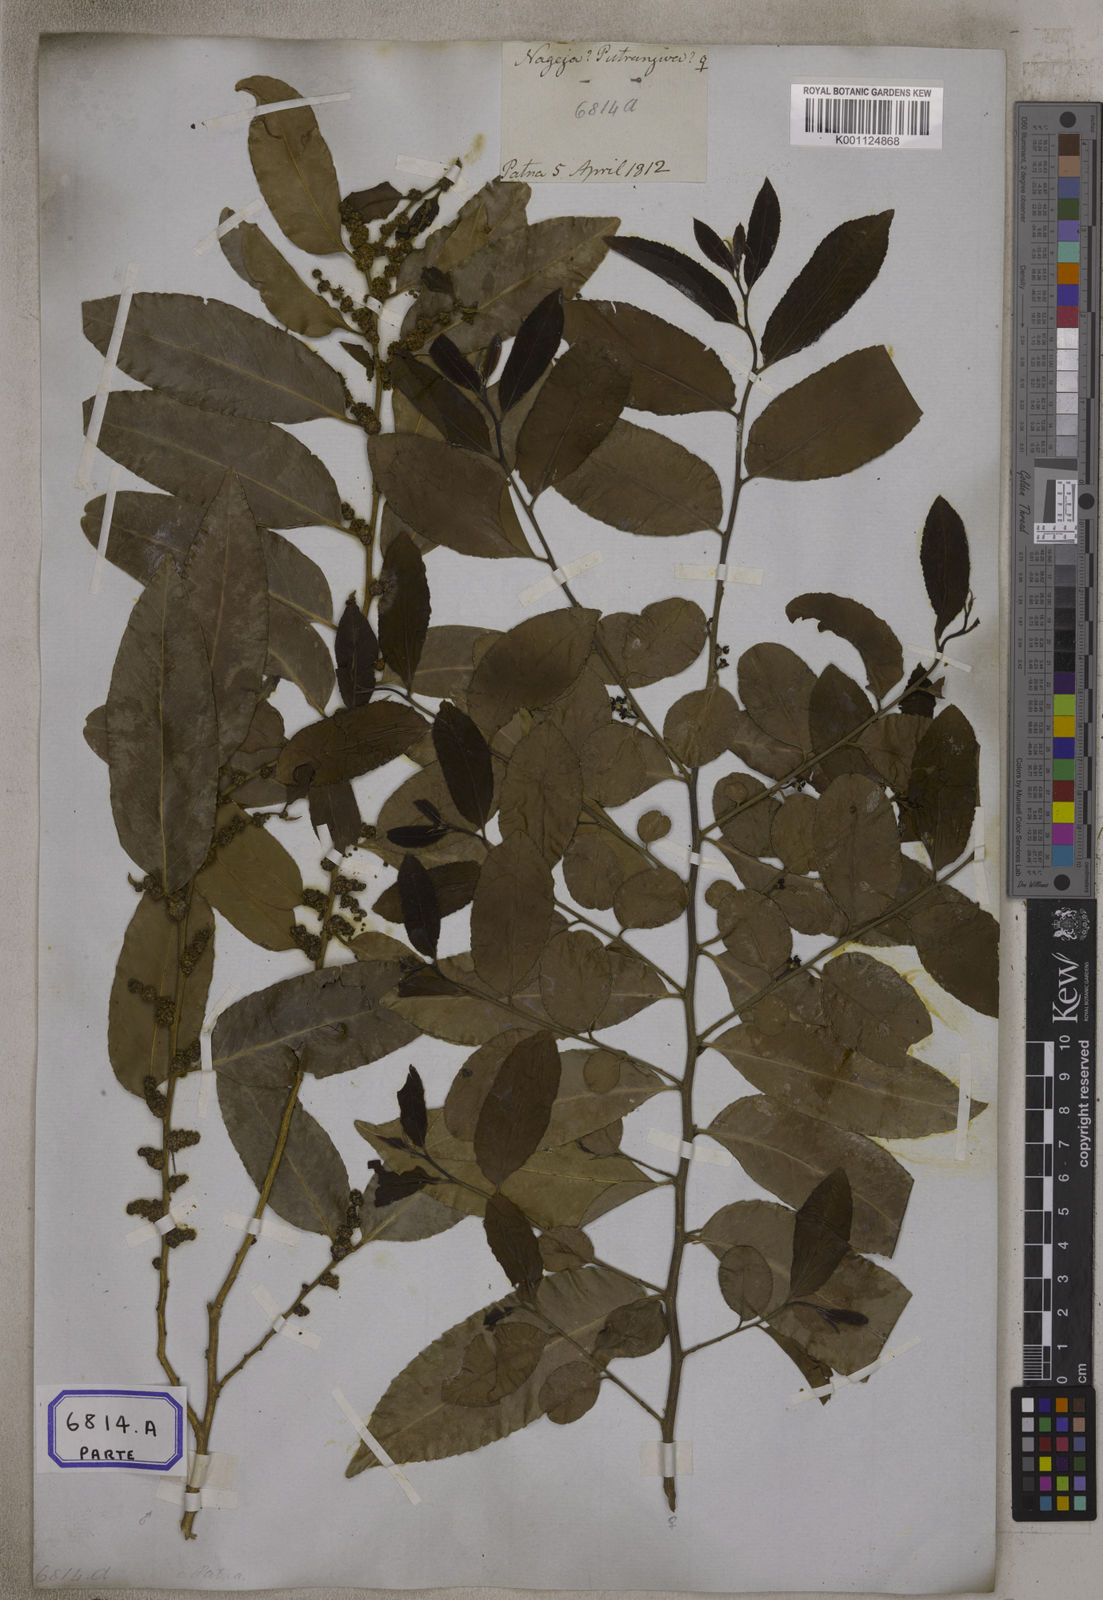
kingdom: Plantae
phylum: Tracheophyta
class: Magnoliopsida
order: Malpighiales
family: Putranjivaceae
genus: Putranjiva
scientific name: Putranjiva roxburghii
